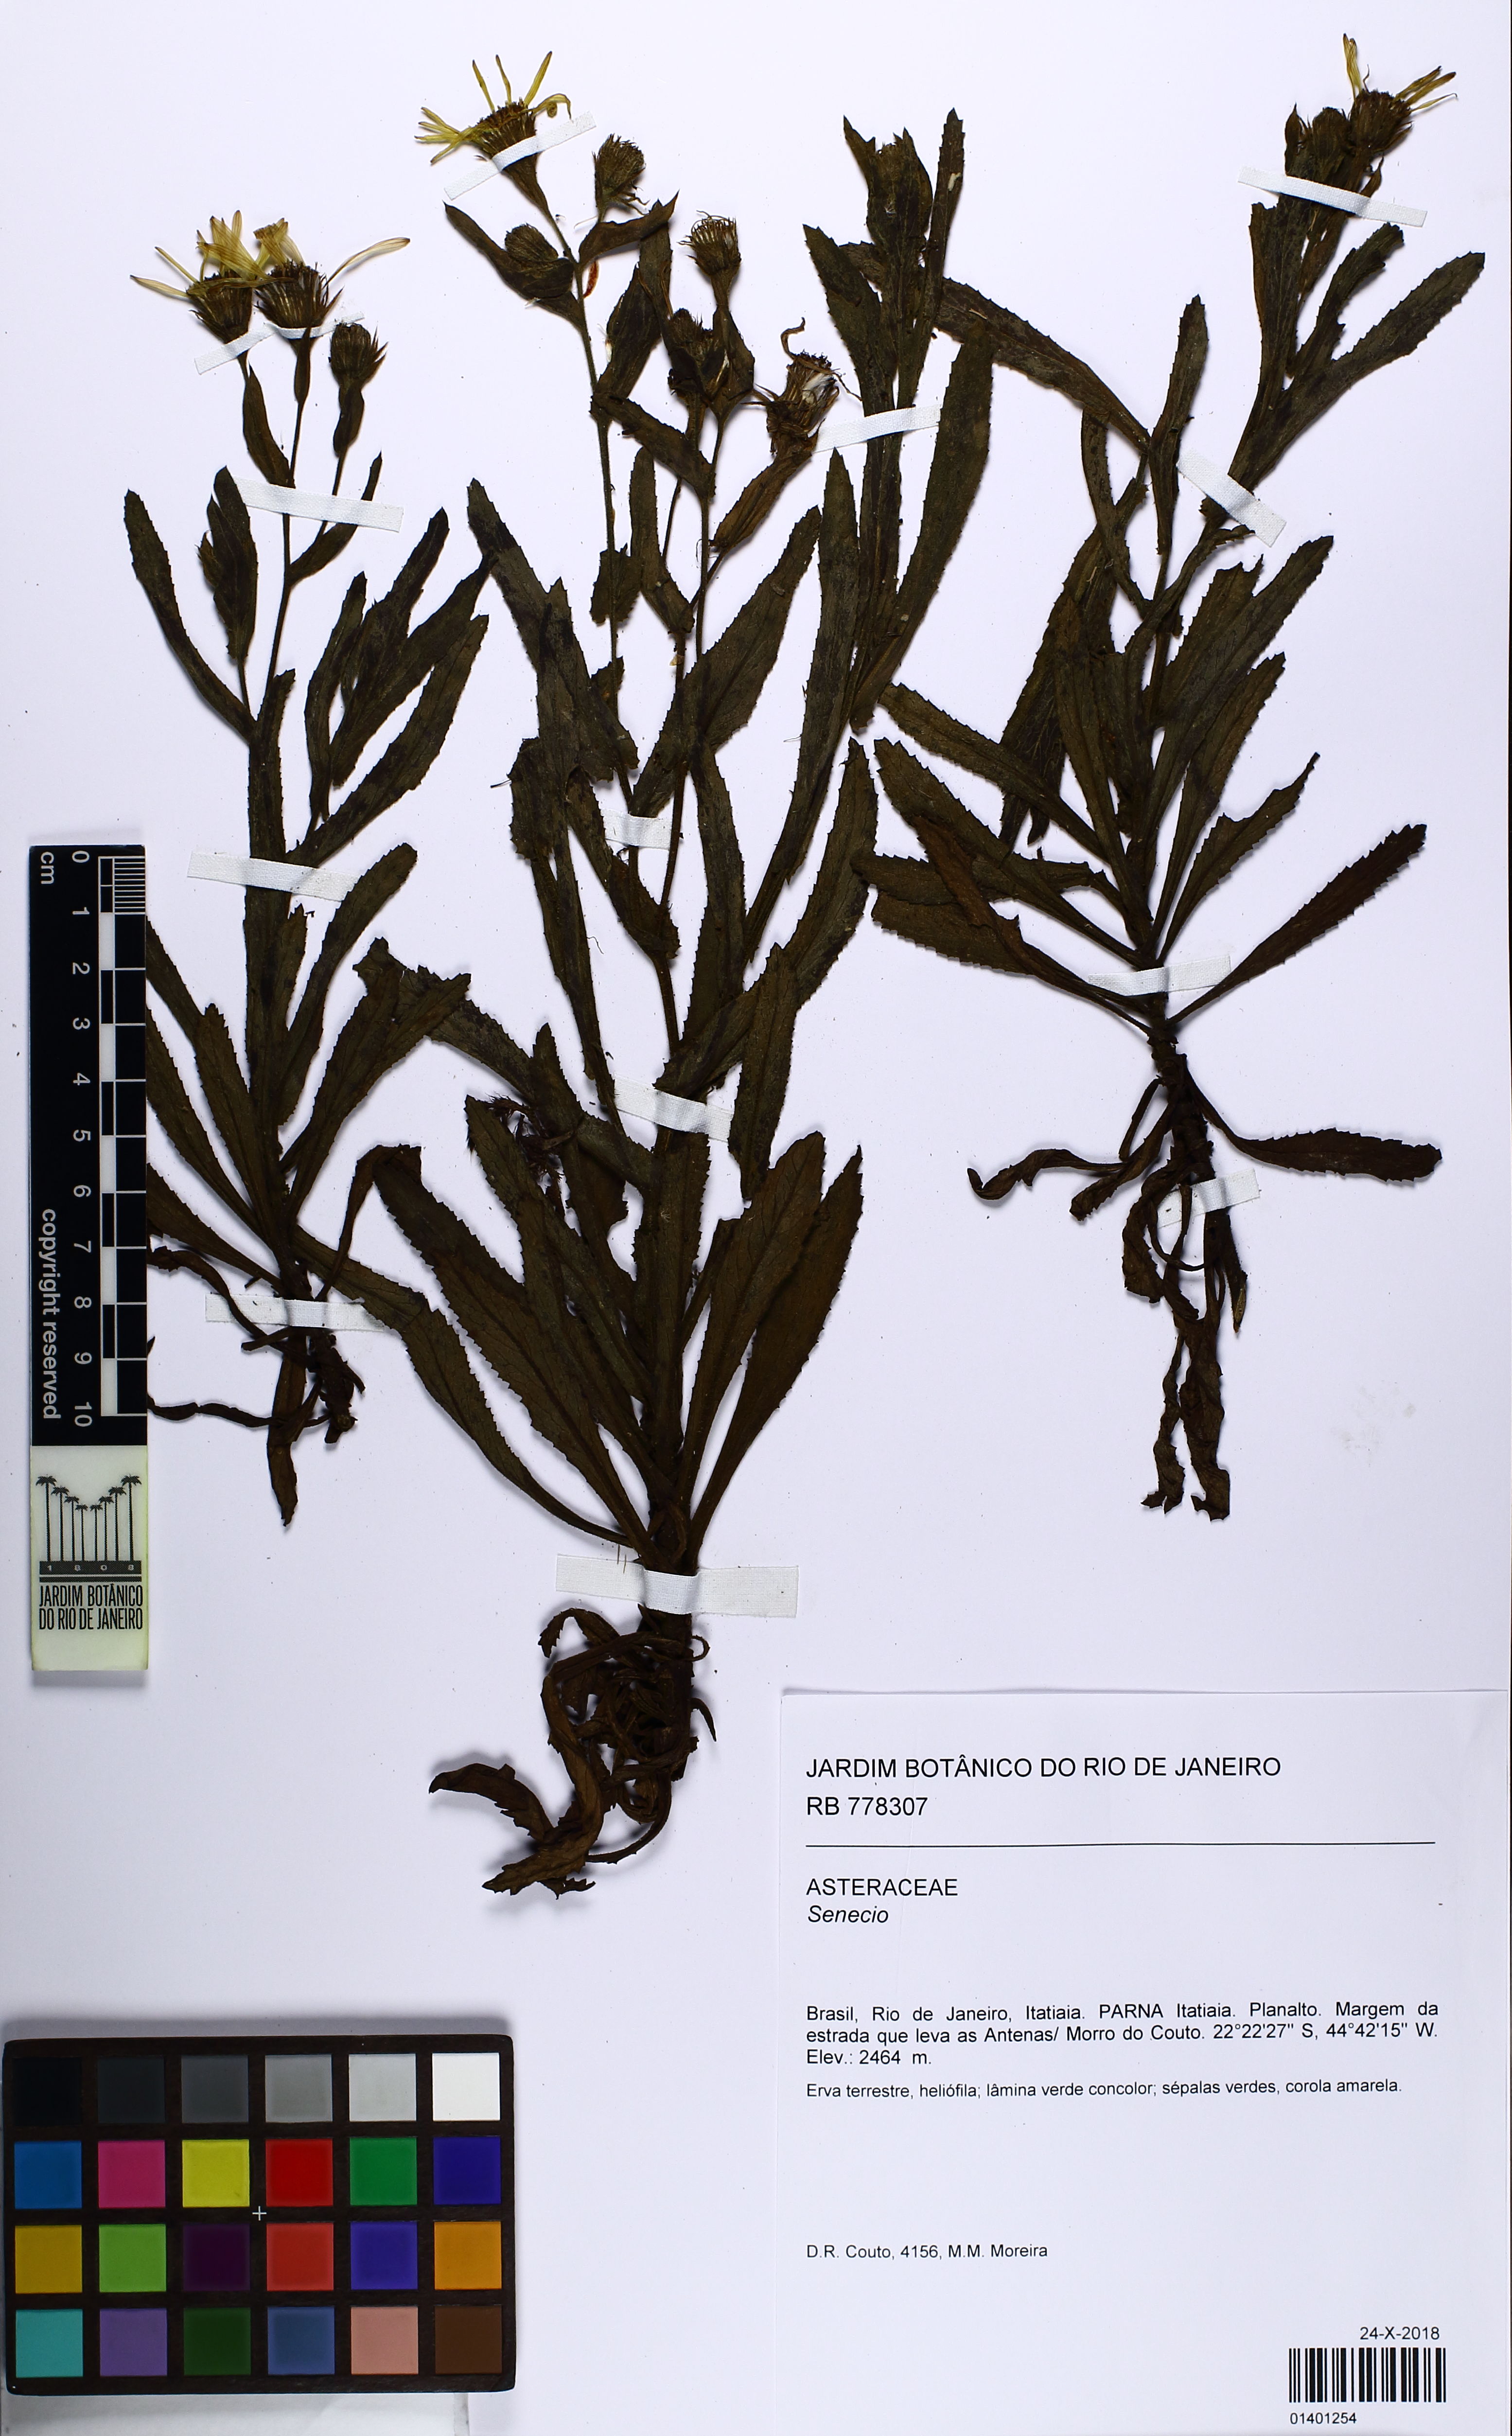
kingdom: Plantae
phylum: Tracheophyta
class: Magnoliopsida
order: Asterales
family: Asteraceae
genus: Senecio
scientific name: Senecio
